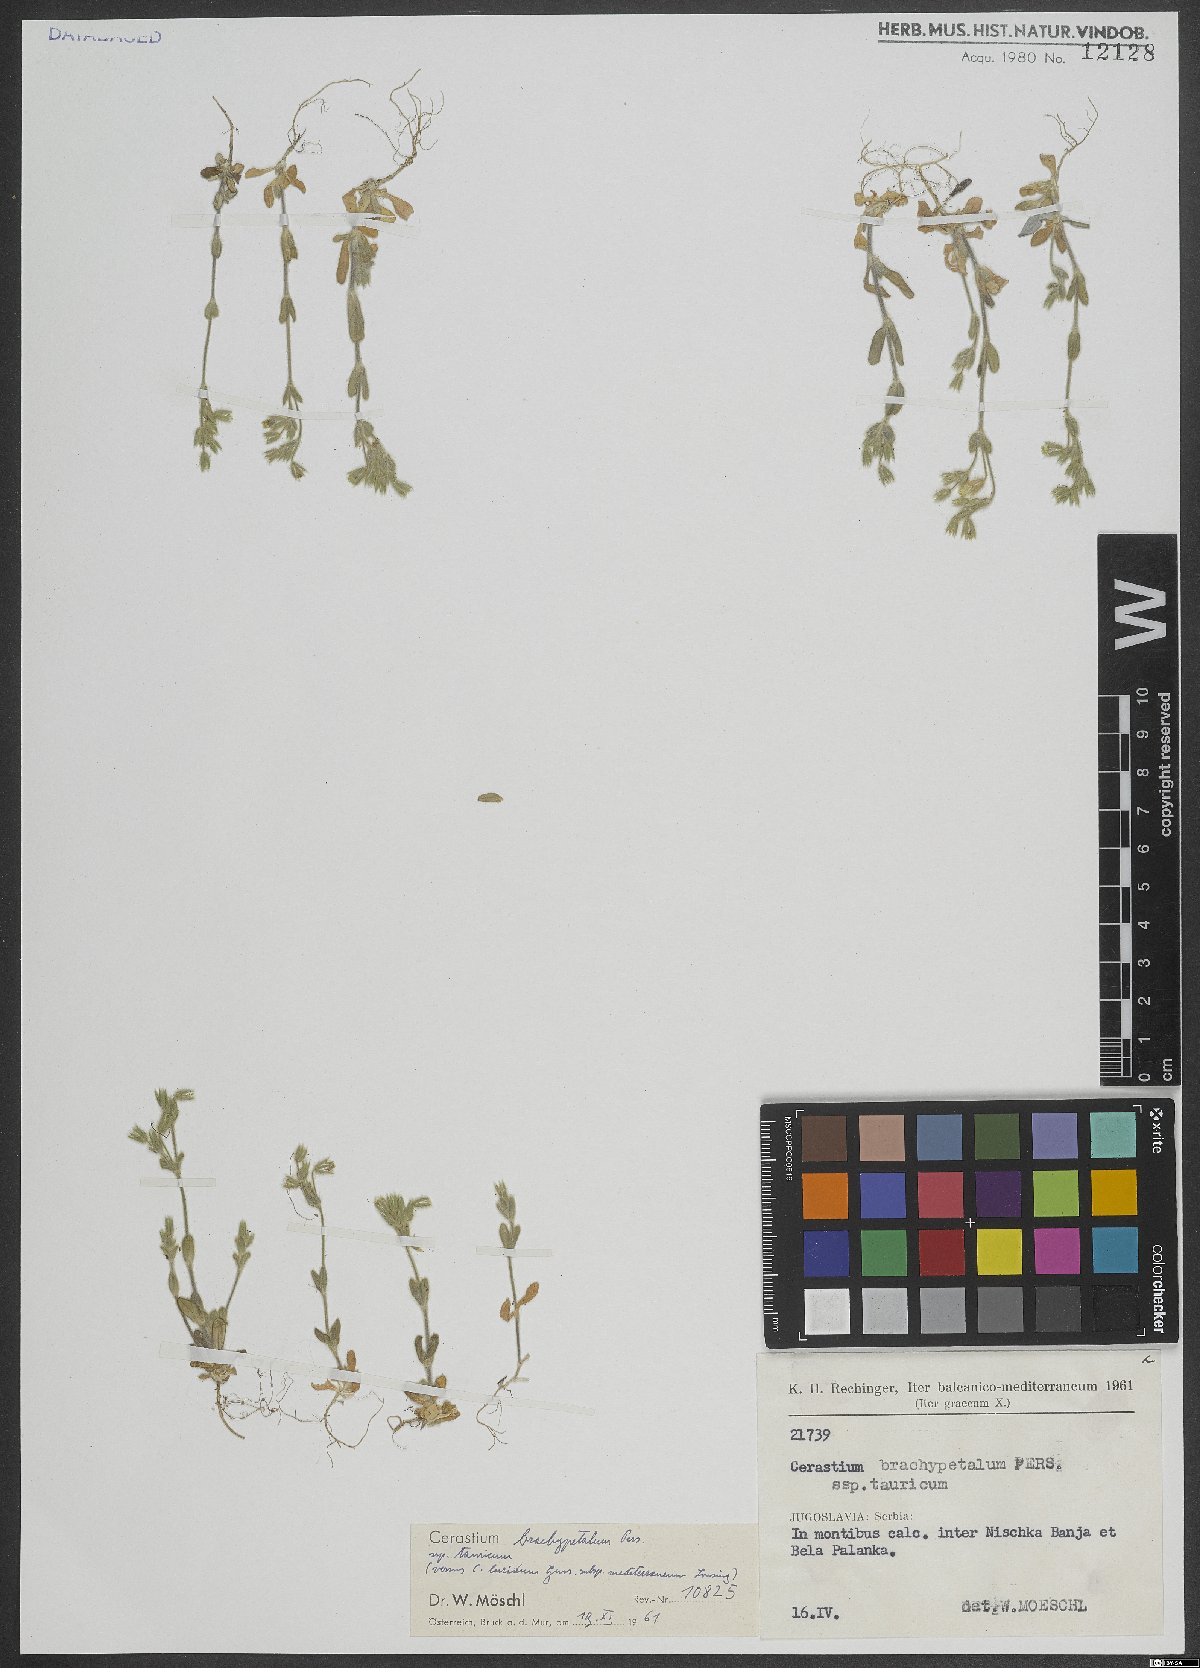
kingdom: Plantae
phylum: Tracheophyta
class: Magnoliopsida
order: Caryophyllales
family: Caryophyllaceae
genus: Cerastium
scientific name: Cerastium brachypetalum
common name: Grey mouse-ear
